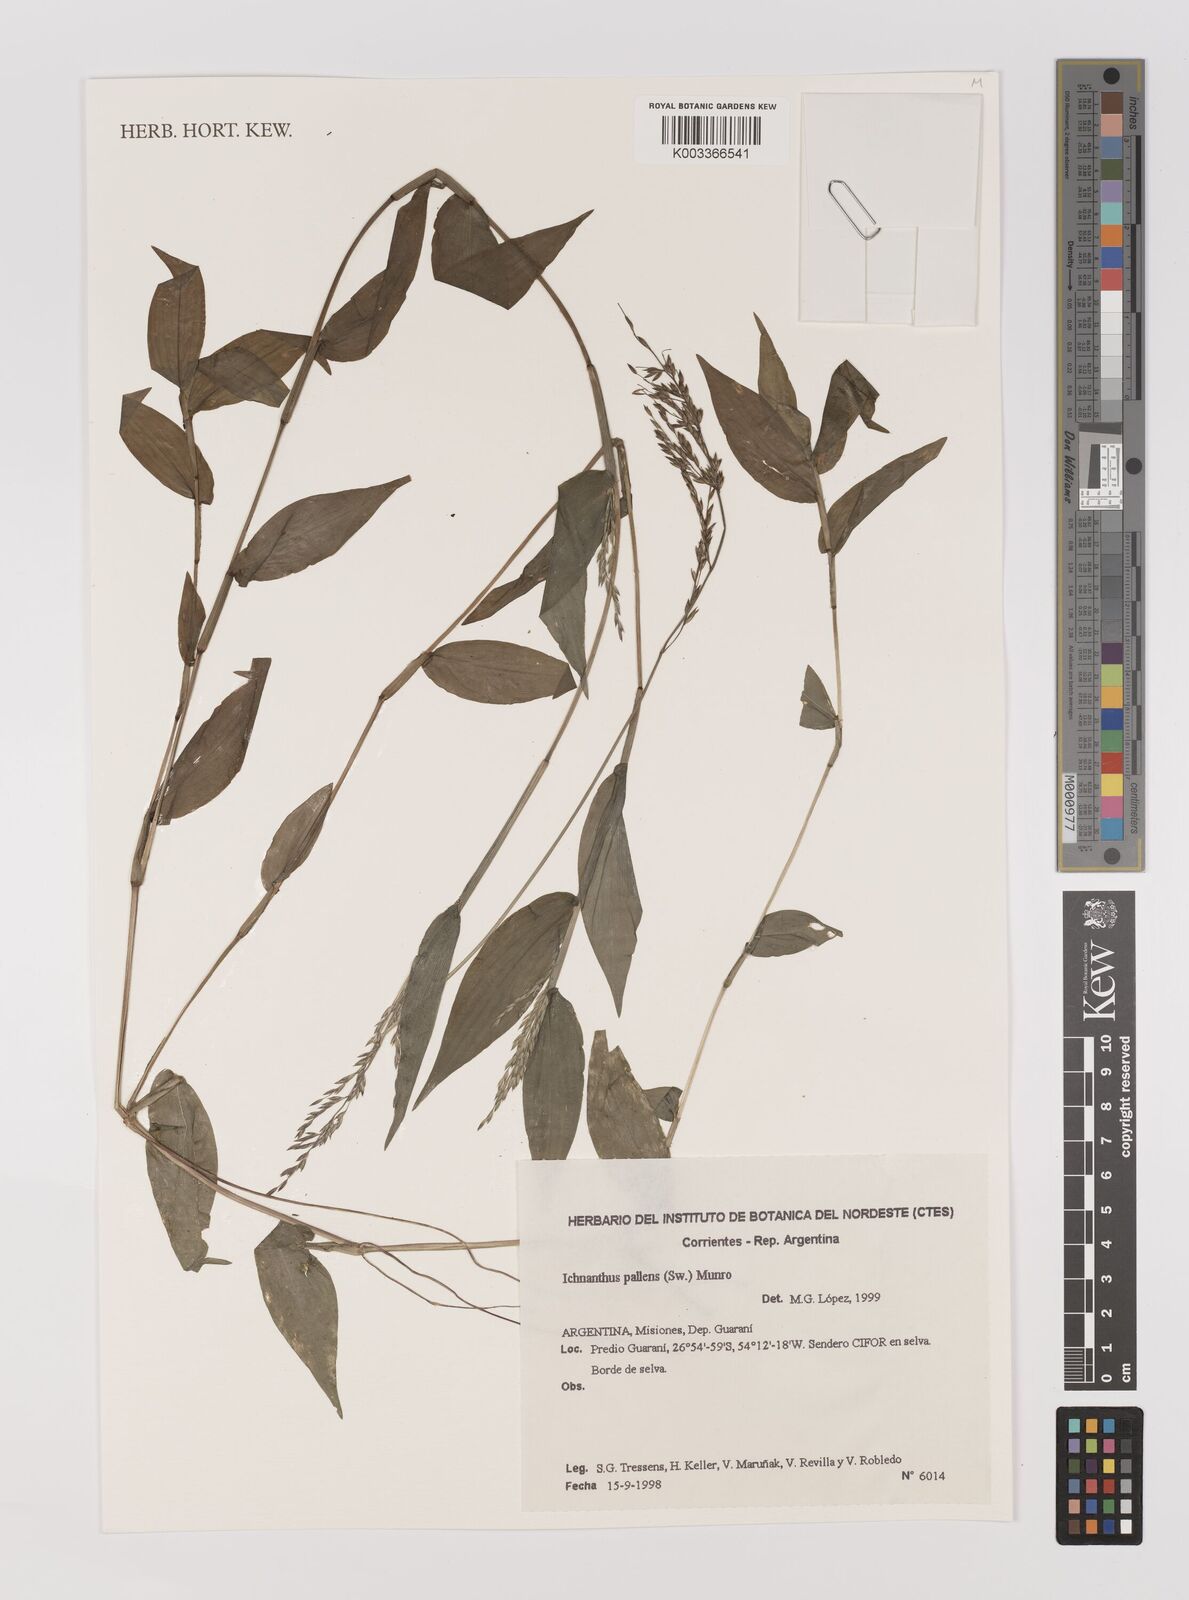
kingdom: Plantae
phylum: Tracheophyta
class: Liliopsida
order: Poales
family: Poaceae
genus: Ichnanthus
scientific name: Ichnanthus pallens
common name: Water grass
